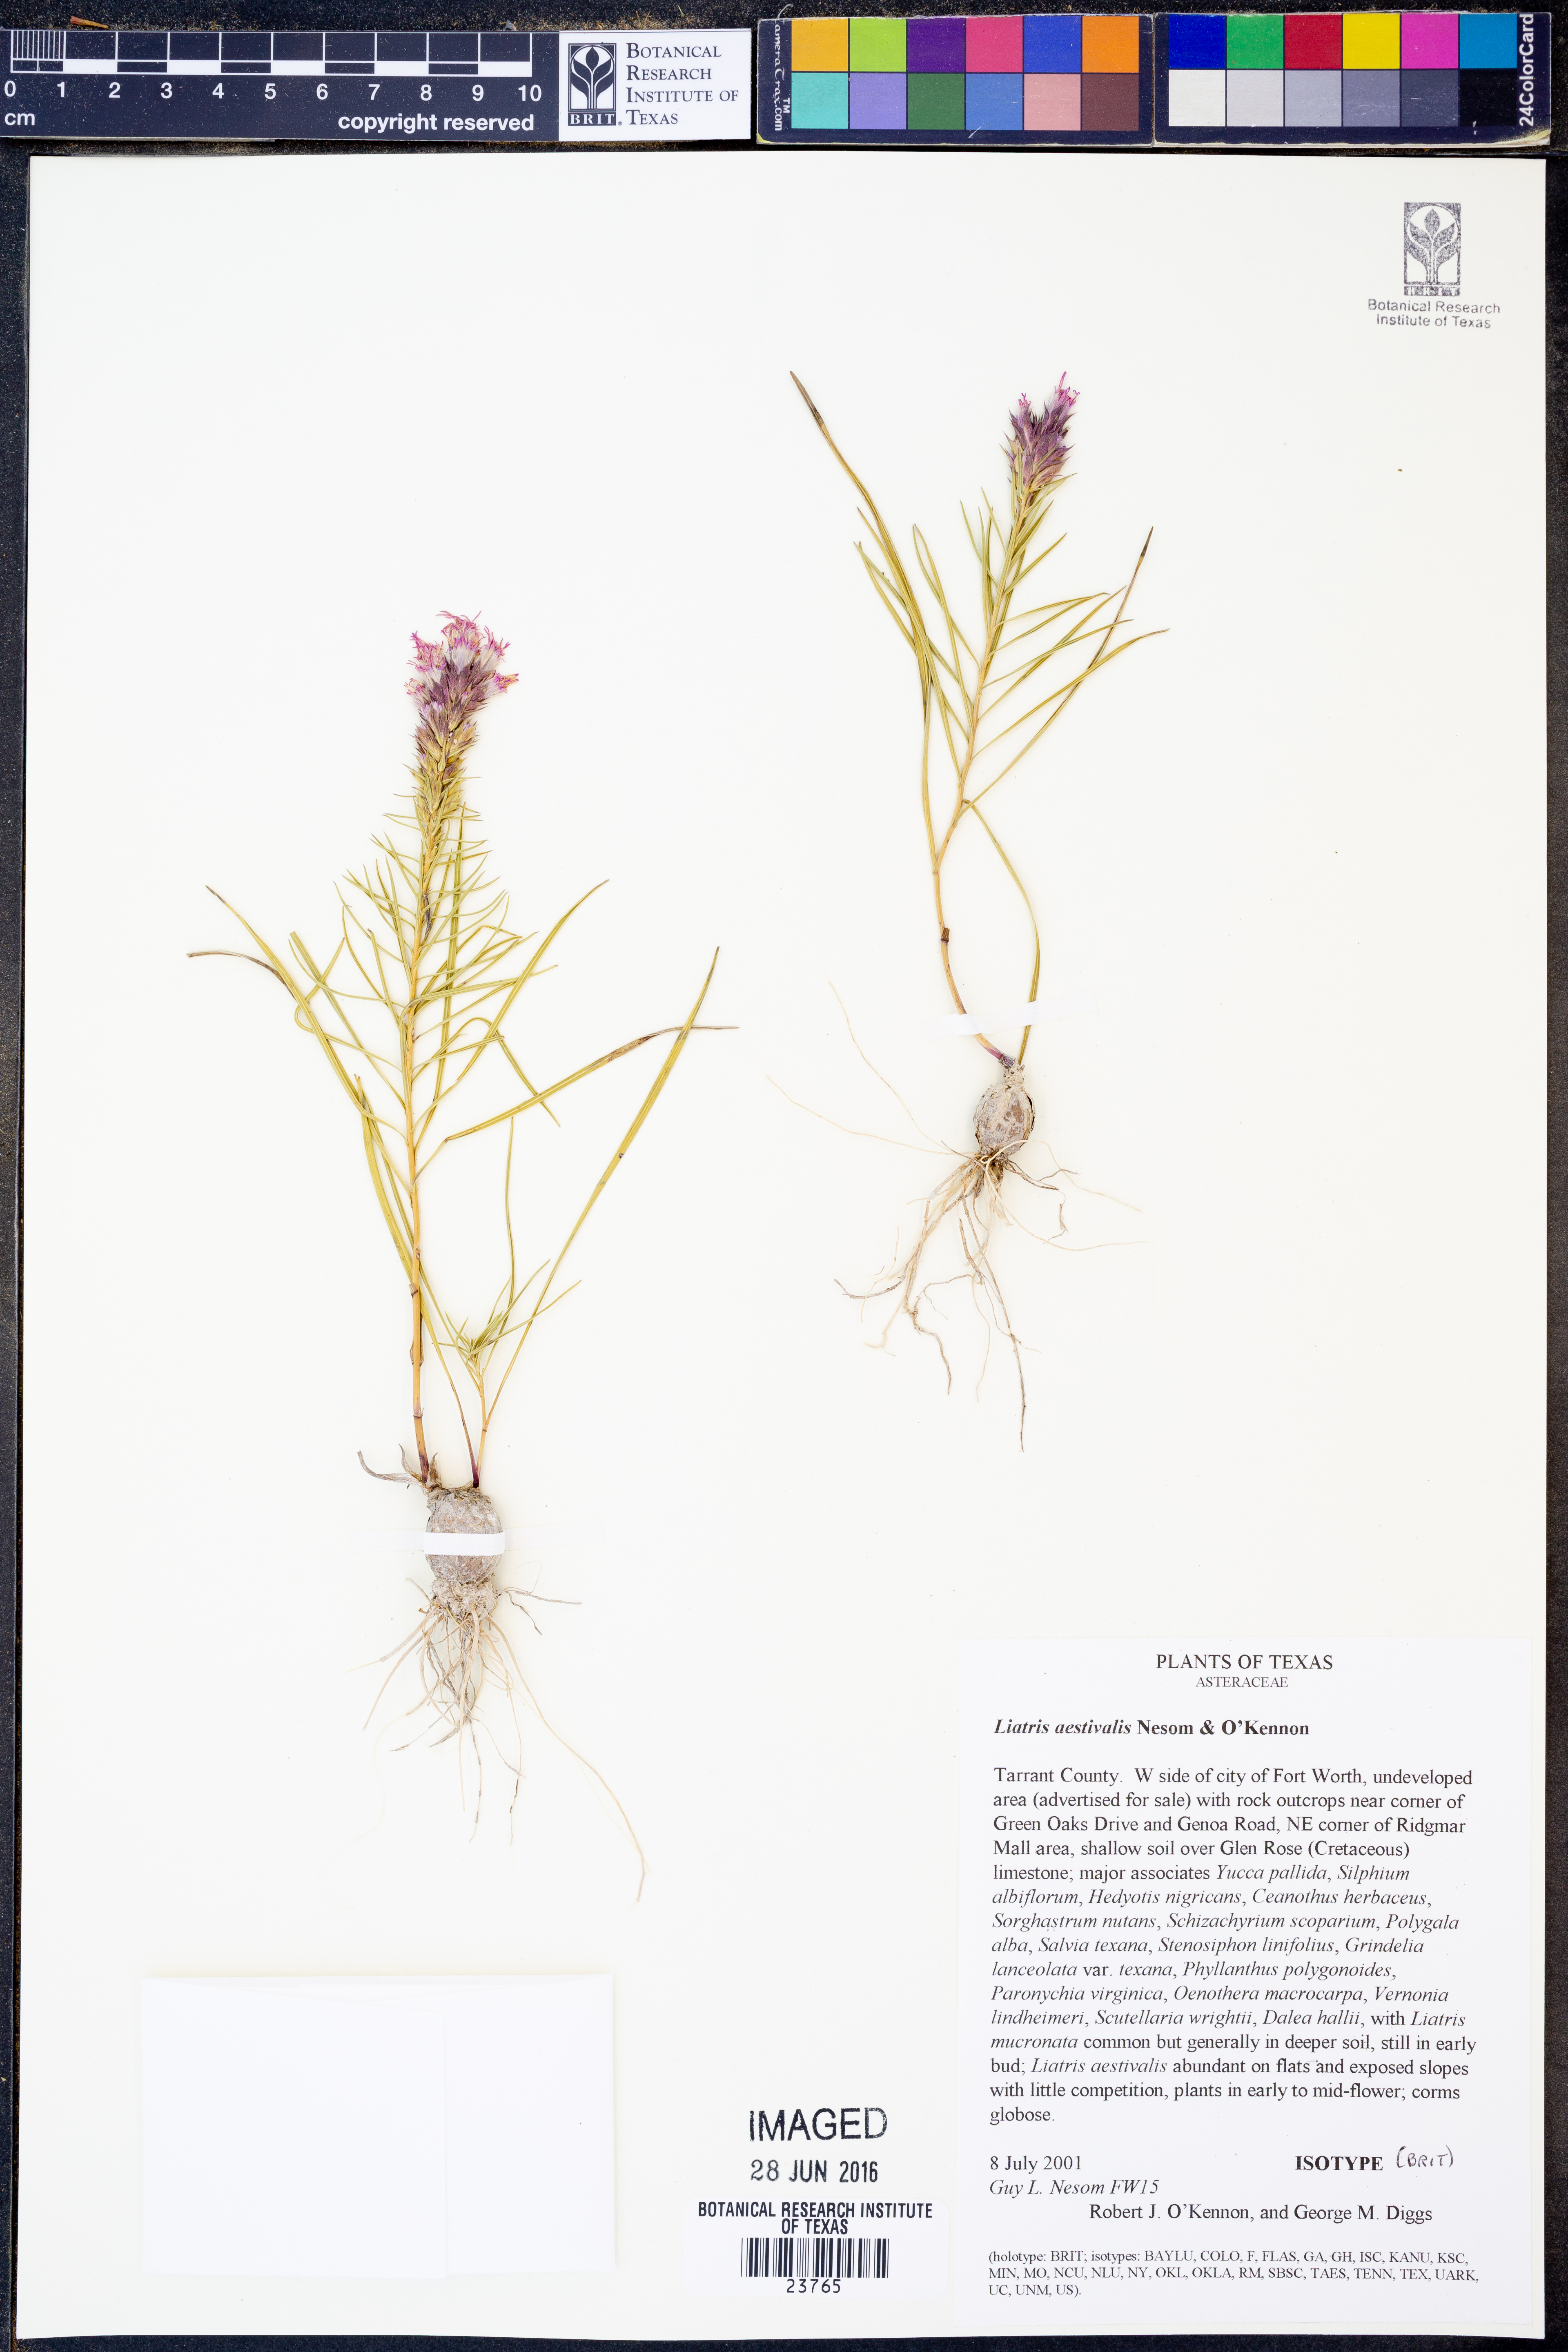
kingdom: Plantae
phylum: Tracheophyta
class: Magnoliopsida
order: Asterales
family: Asteraceae
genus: Liatris
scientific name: Liatris aestivalis
